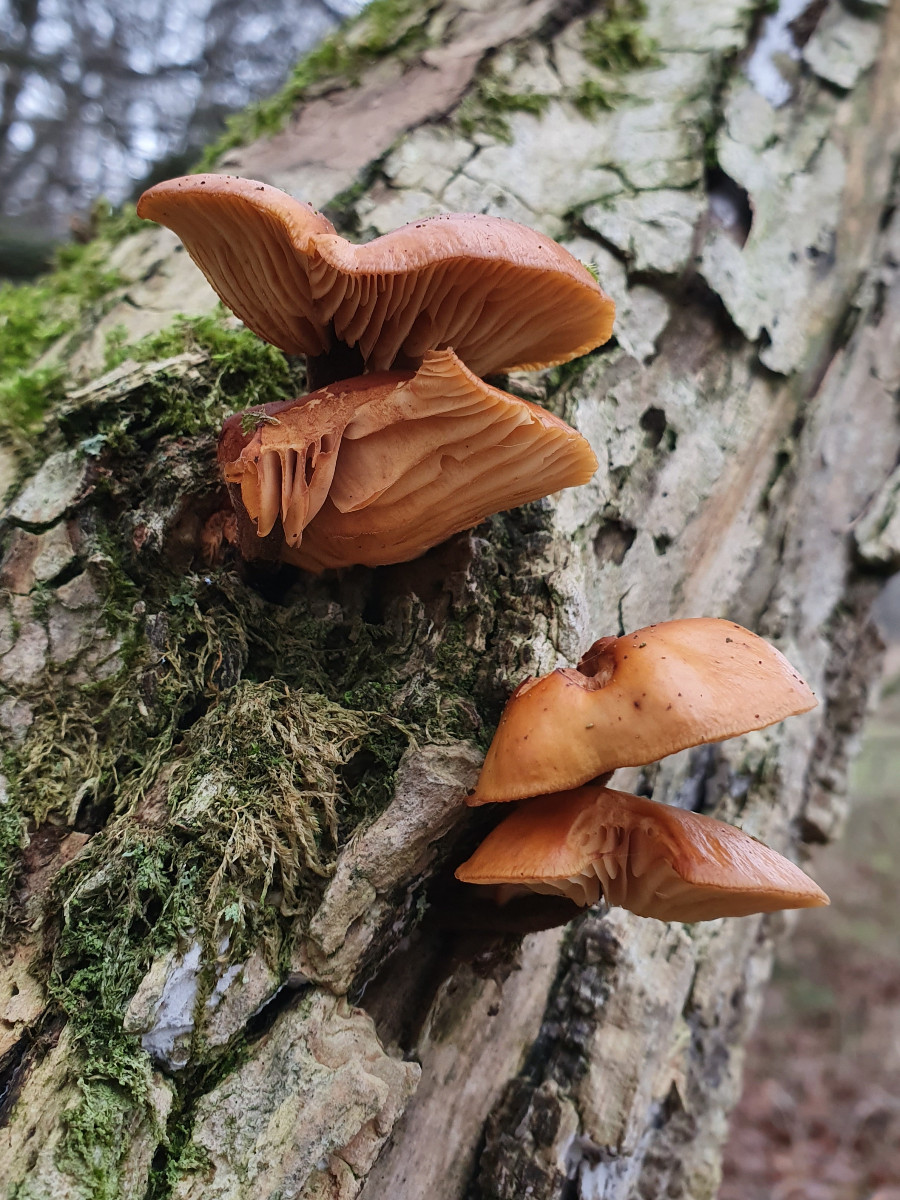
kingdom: Fungi
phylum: Basidiomycota
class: Agaricomycetes
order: Agaricales
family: Physalacriaceae
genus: Flammulina
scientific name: Flammulina velutipes
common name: gul fløjlsfod
